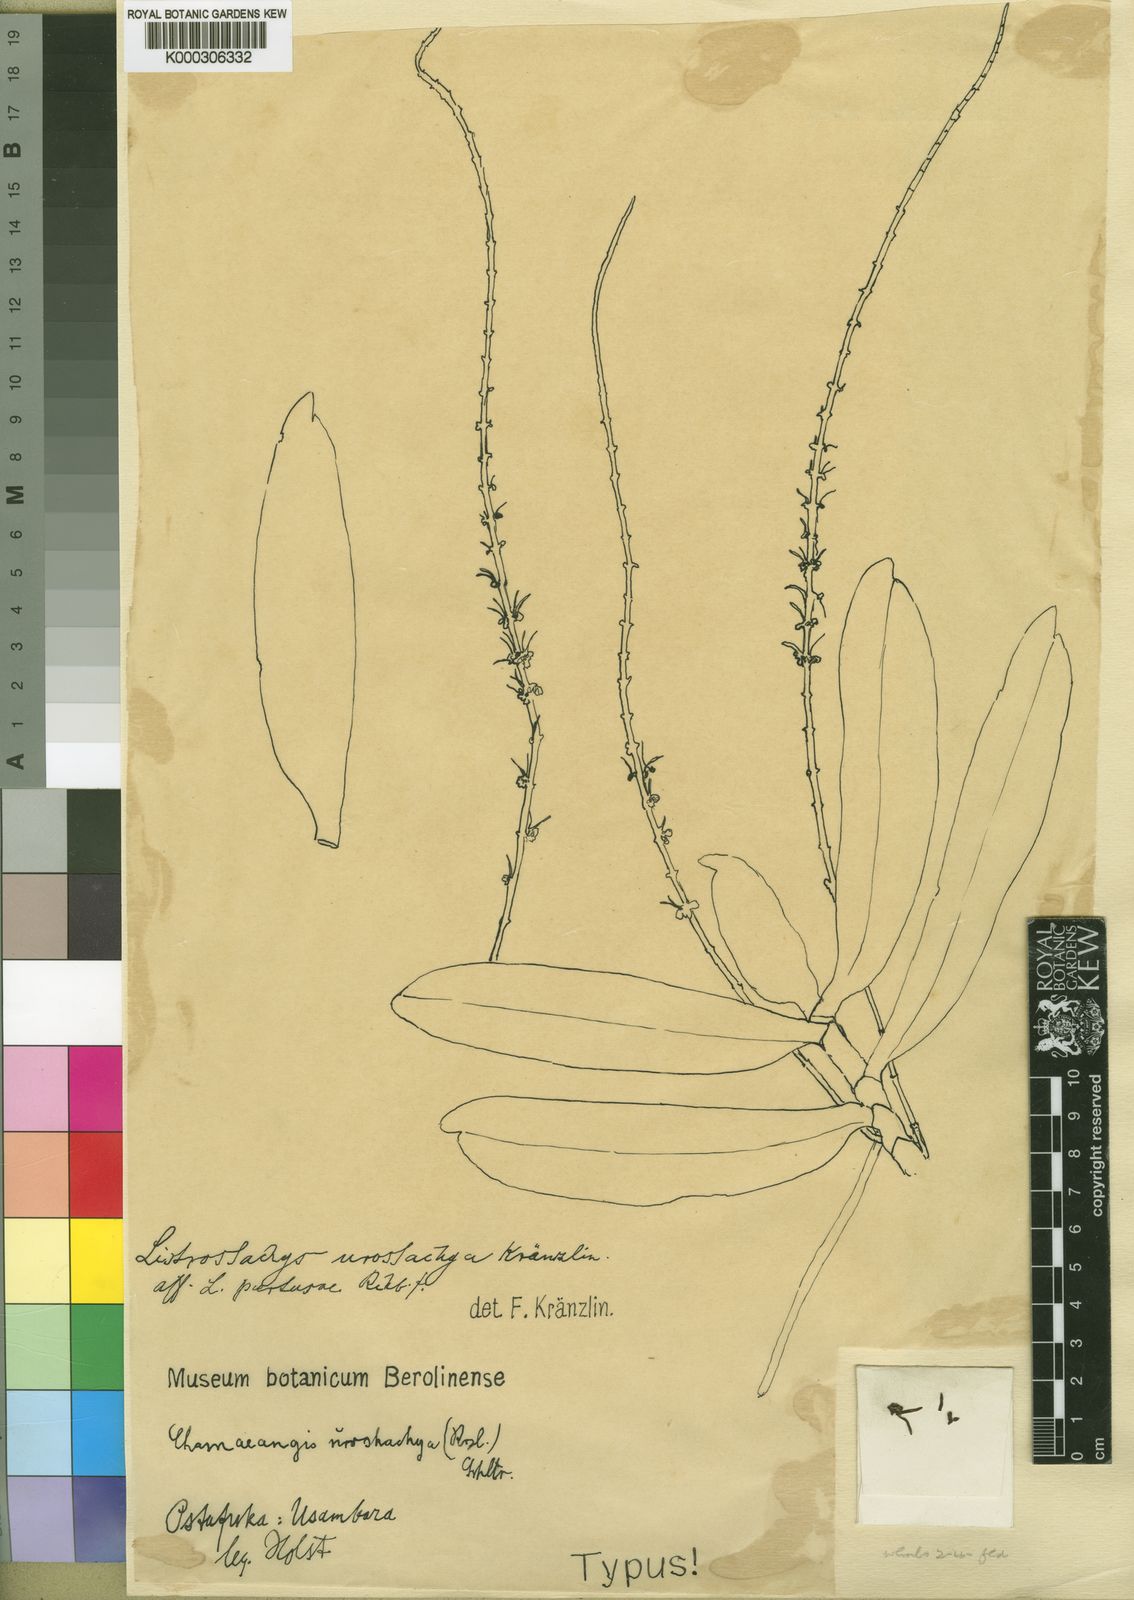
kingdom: Plantae
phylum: Tracheophyta
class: Liliopsida
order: Asparagales
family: Orchidaceae
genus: Diaphananthe
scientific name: Diaphananthe odoratissima
